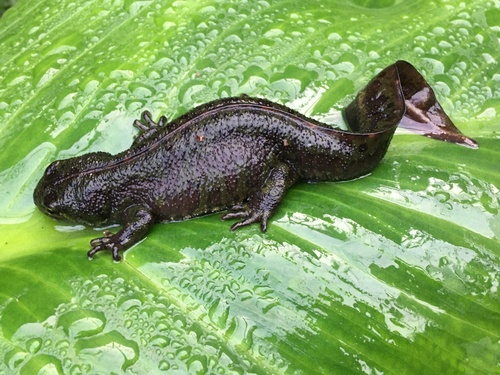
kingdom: Animalia
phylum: Chordata
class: Amphibia
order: Caudata
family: Salamandridae
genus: Triturus
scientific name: Triturus marmoratus
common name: Marbled newt
